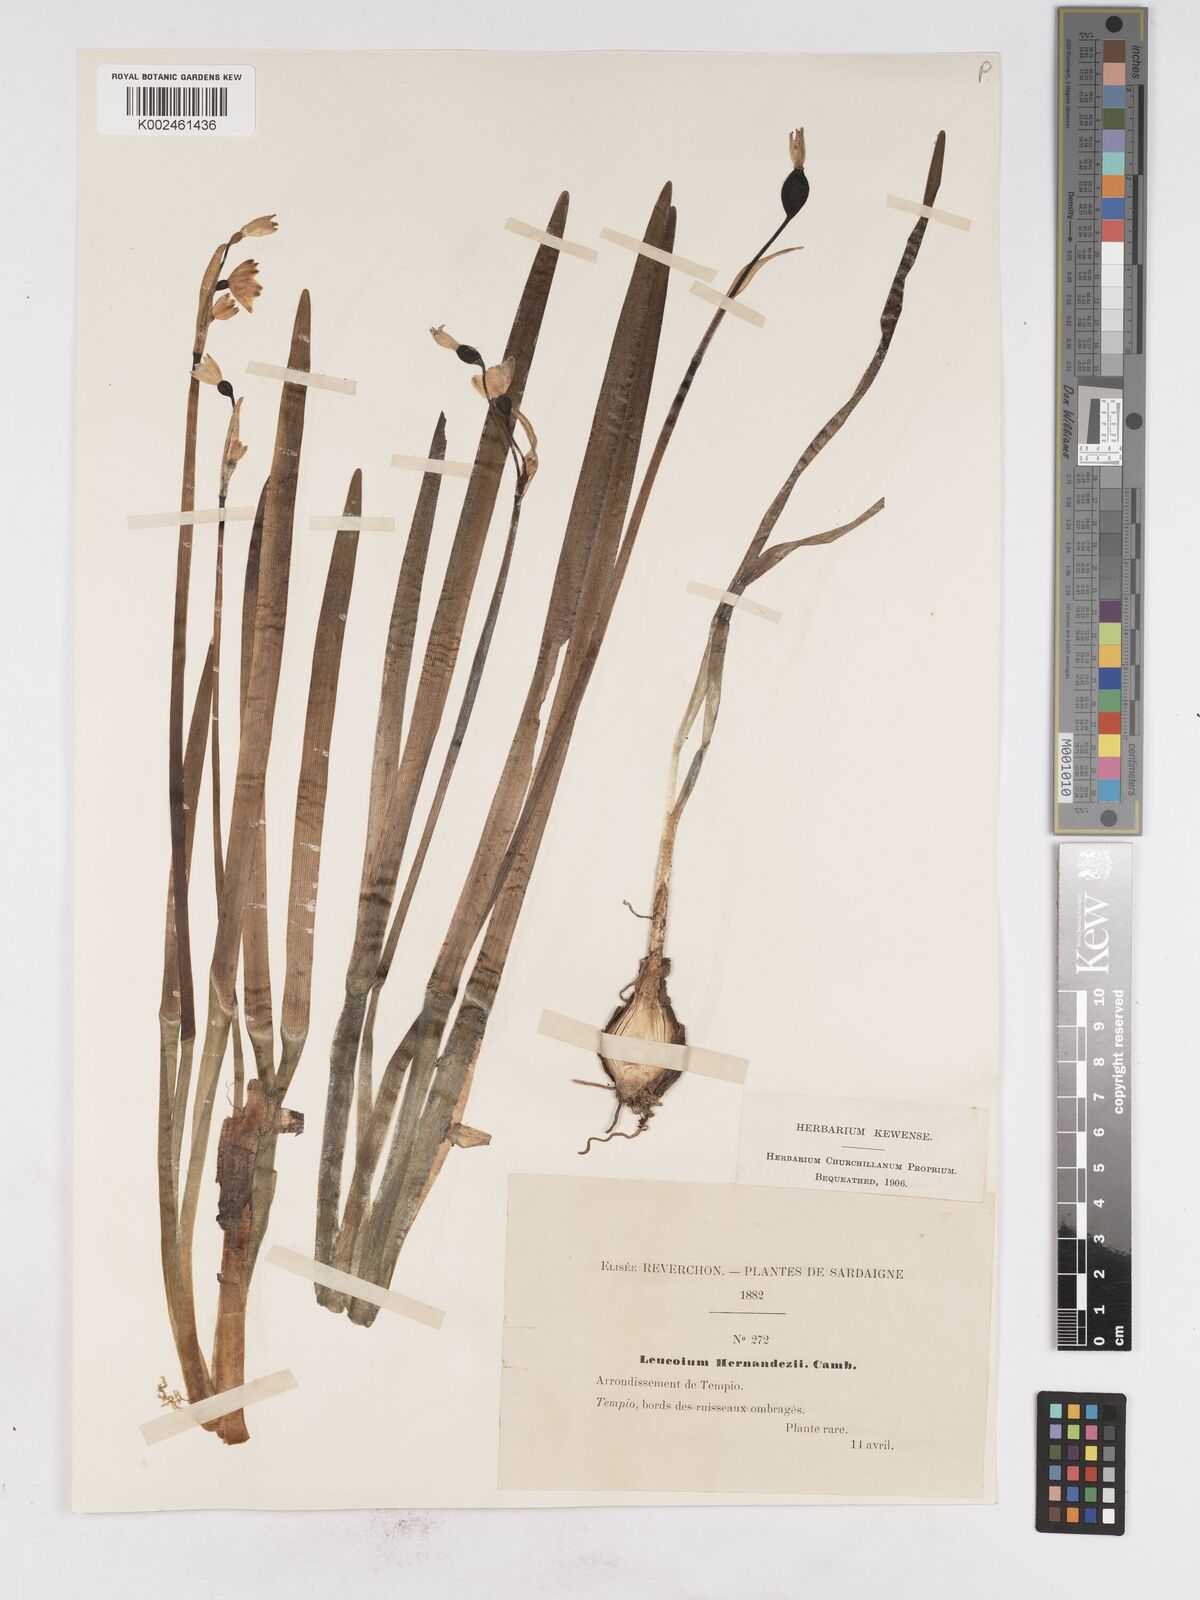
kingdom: Plantae
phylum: Tracheophyta
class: Liliopsida
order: Asparagales
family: Amaryllidaceae
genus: Leucojum
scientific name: Leucojum aestivum
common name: Summer snowflake
